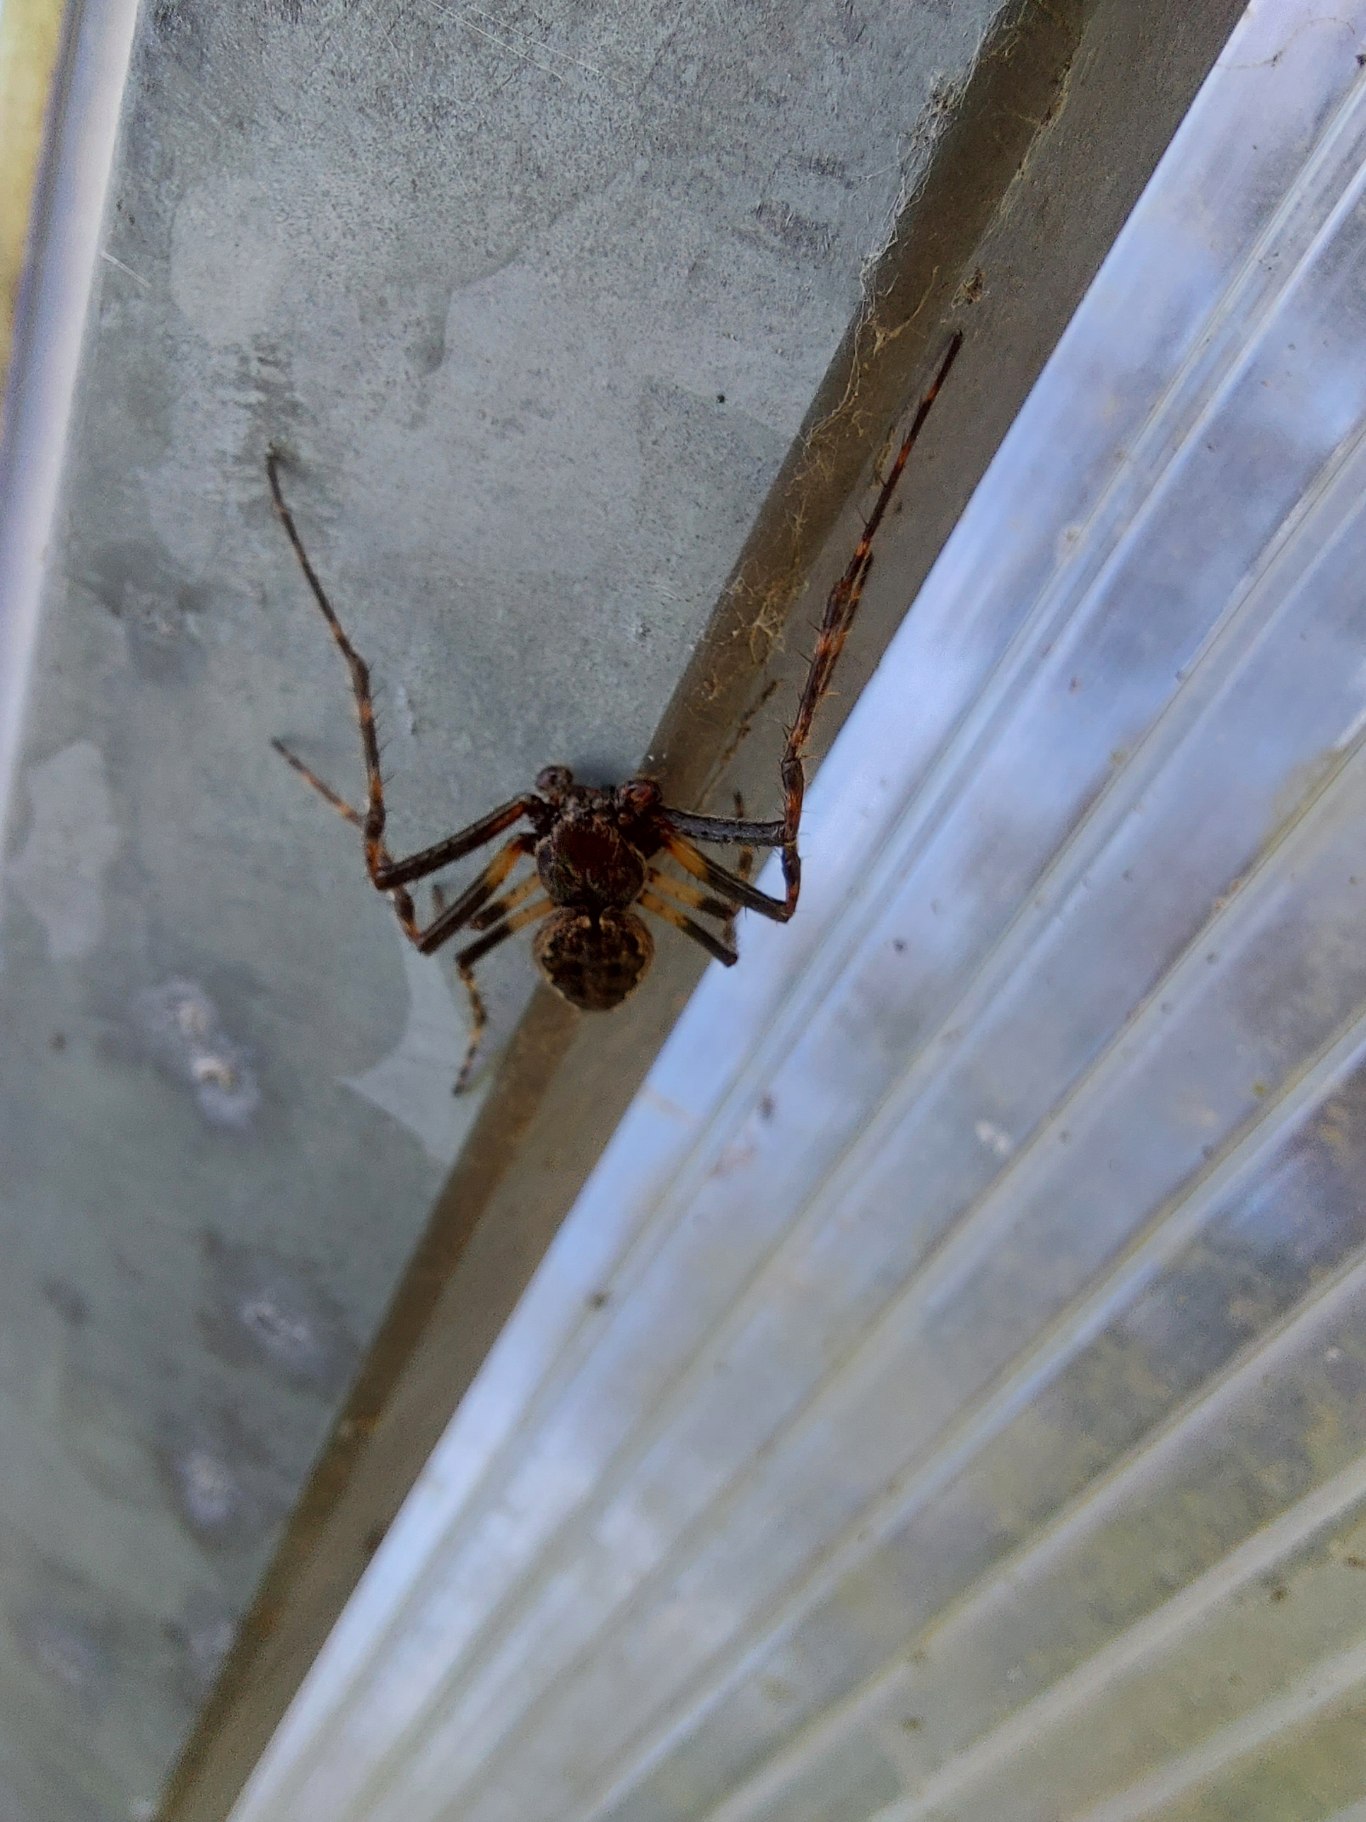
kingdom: Animalia
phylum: Arthropoda
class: Arachnida
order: Araneae
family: Araneidae
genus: Nuctenea
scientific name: Nuctenea umbratica
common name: Flad hjulspinder
